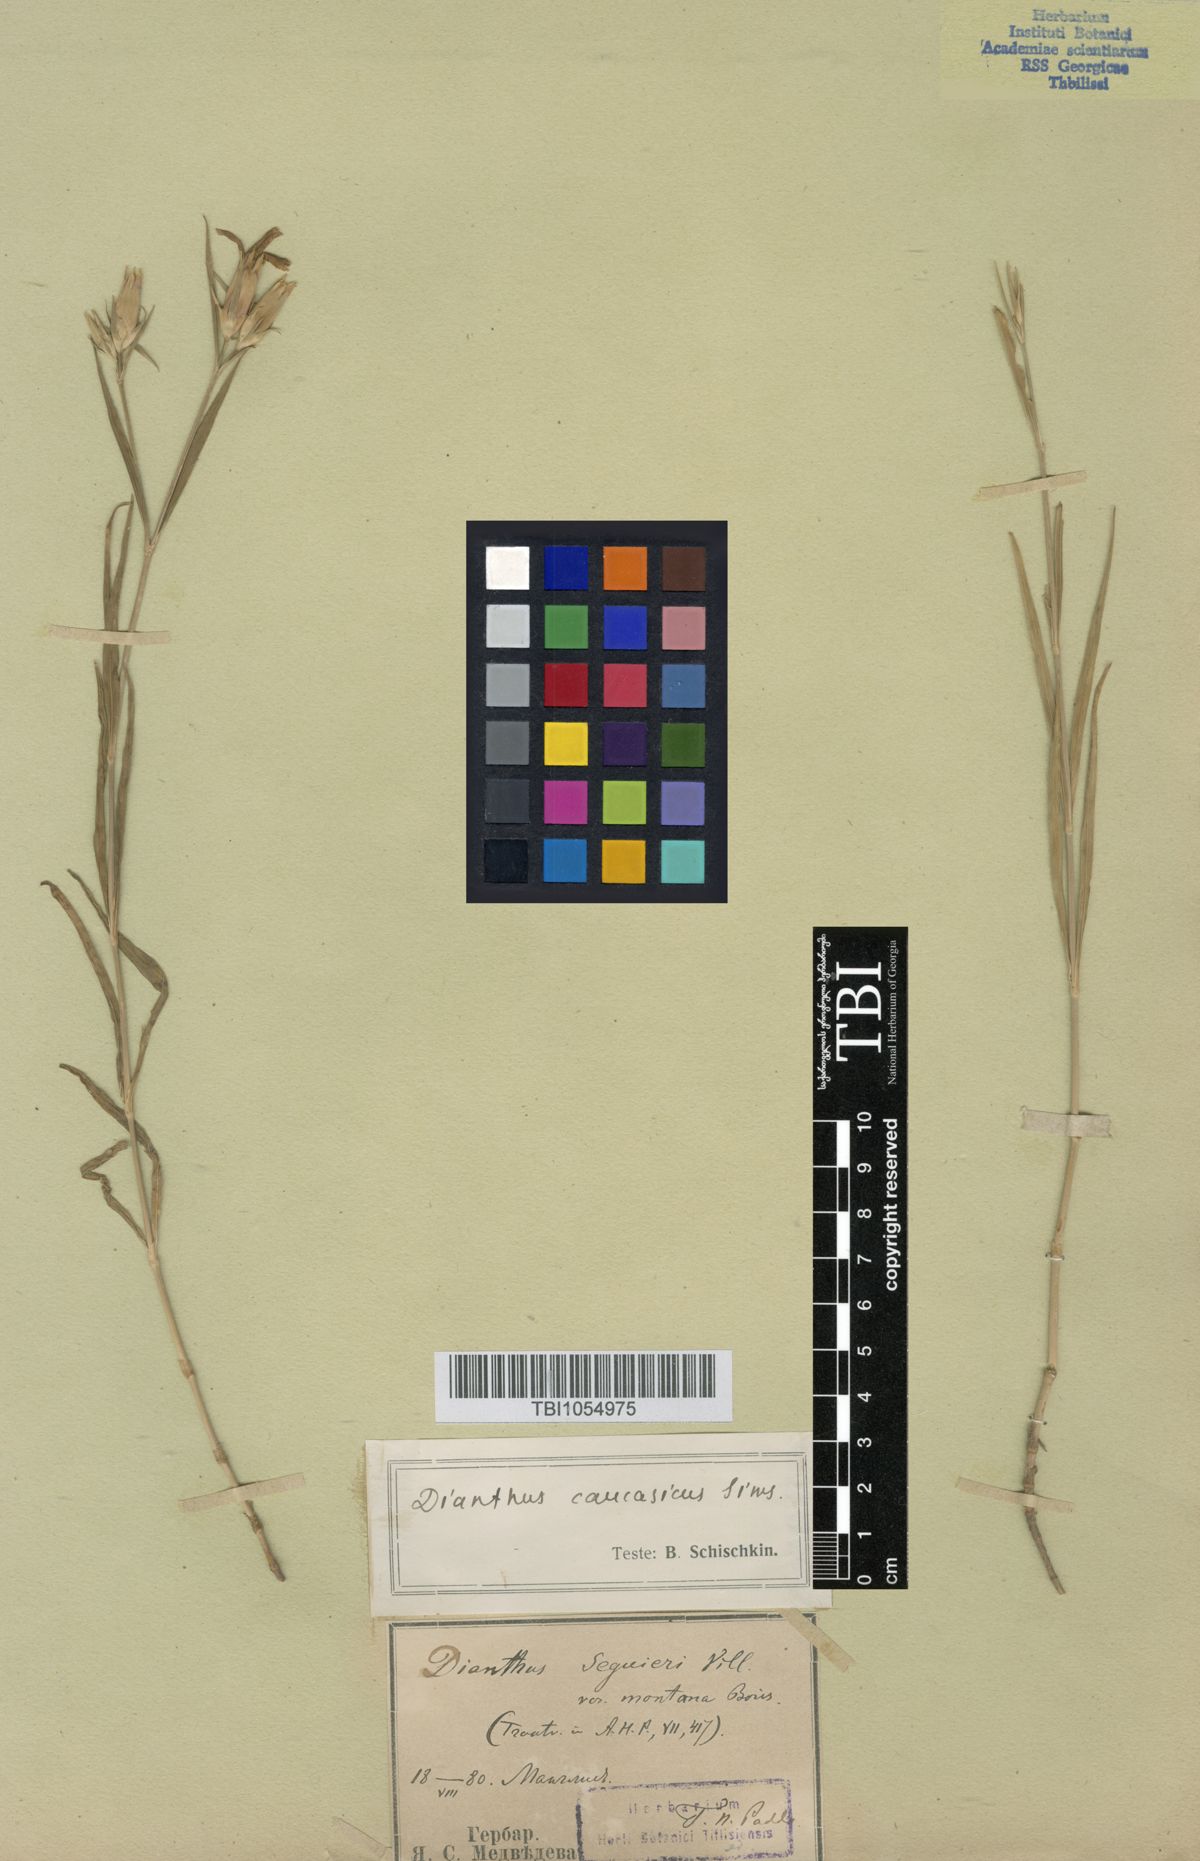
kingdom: Plantae
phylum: Tracheophyta
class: Magnoliopsida
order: Caryophyllales
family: Caryophyllaceae
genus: Dianthus
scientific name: Dianthus caucaseus
